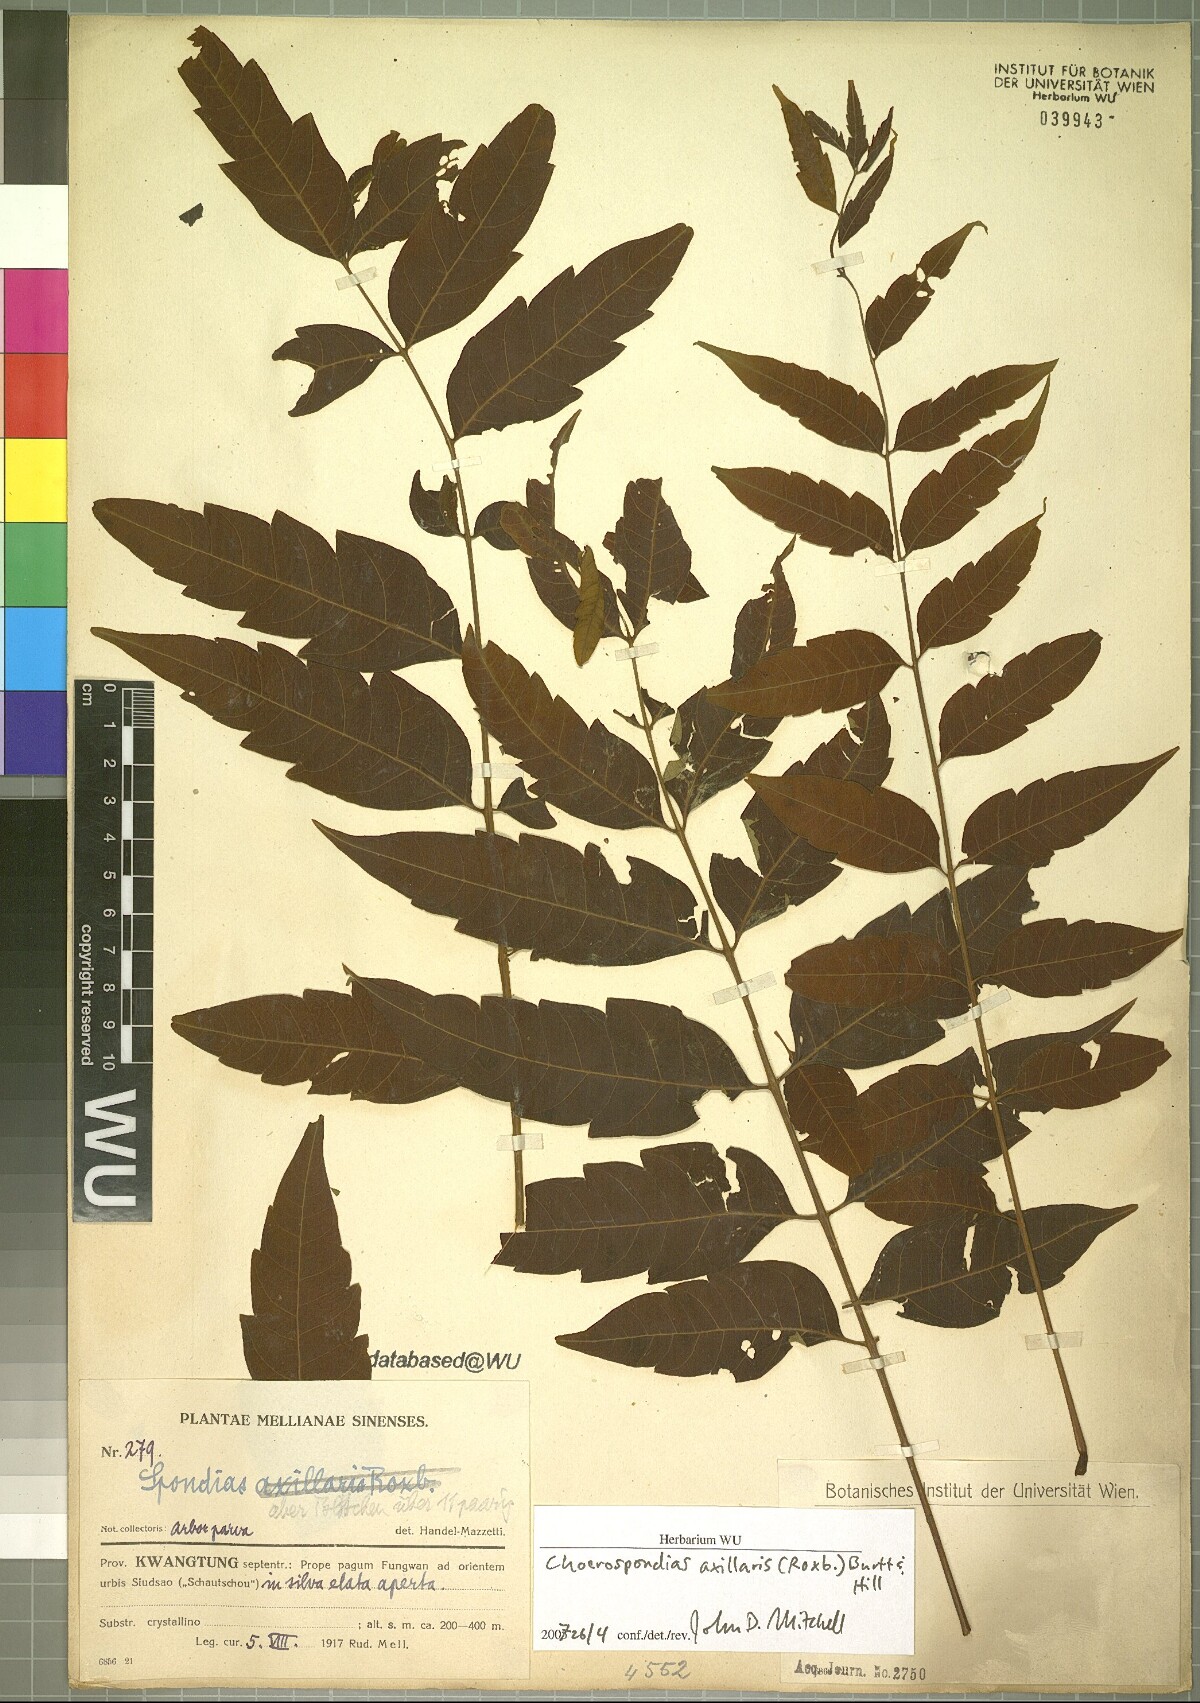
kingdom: Plantae
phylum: Tracheophyta
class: Magnoliopsida
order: Sapindales
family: Anacardiaceae
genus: Choerospondias
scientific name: Choerospondias axillaris
